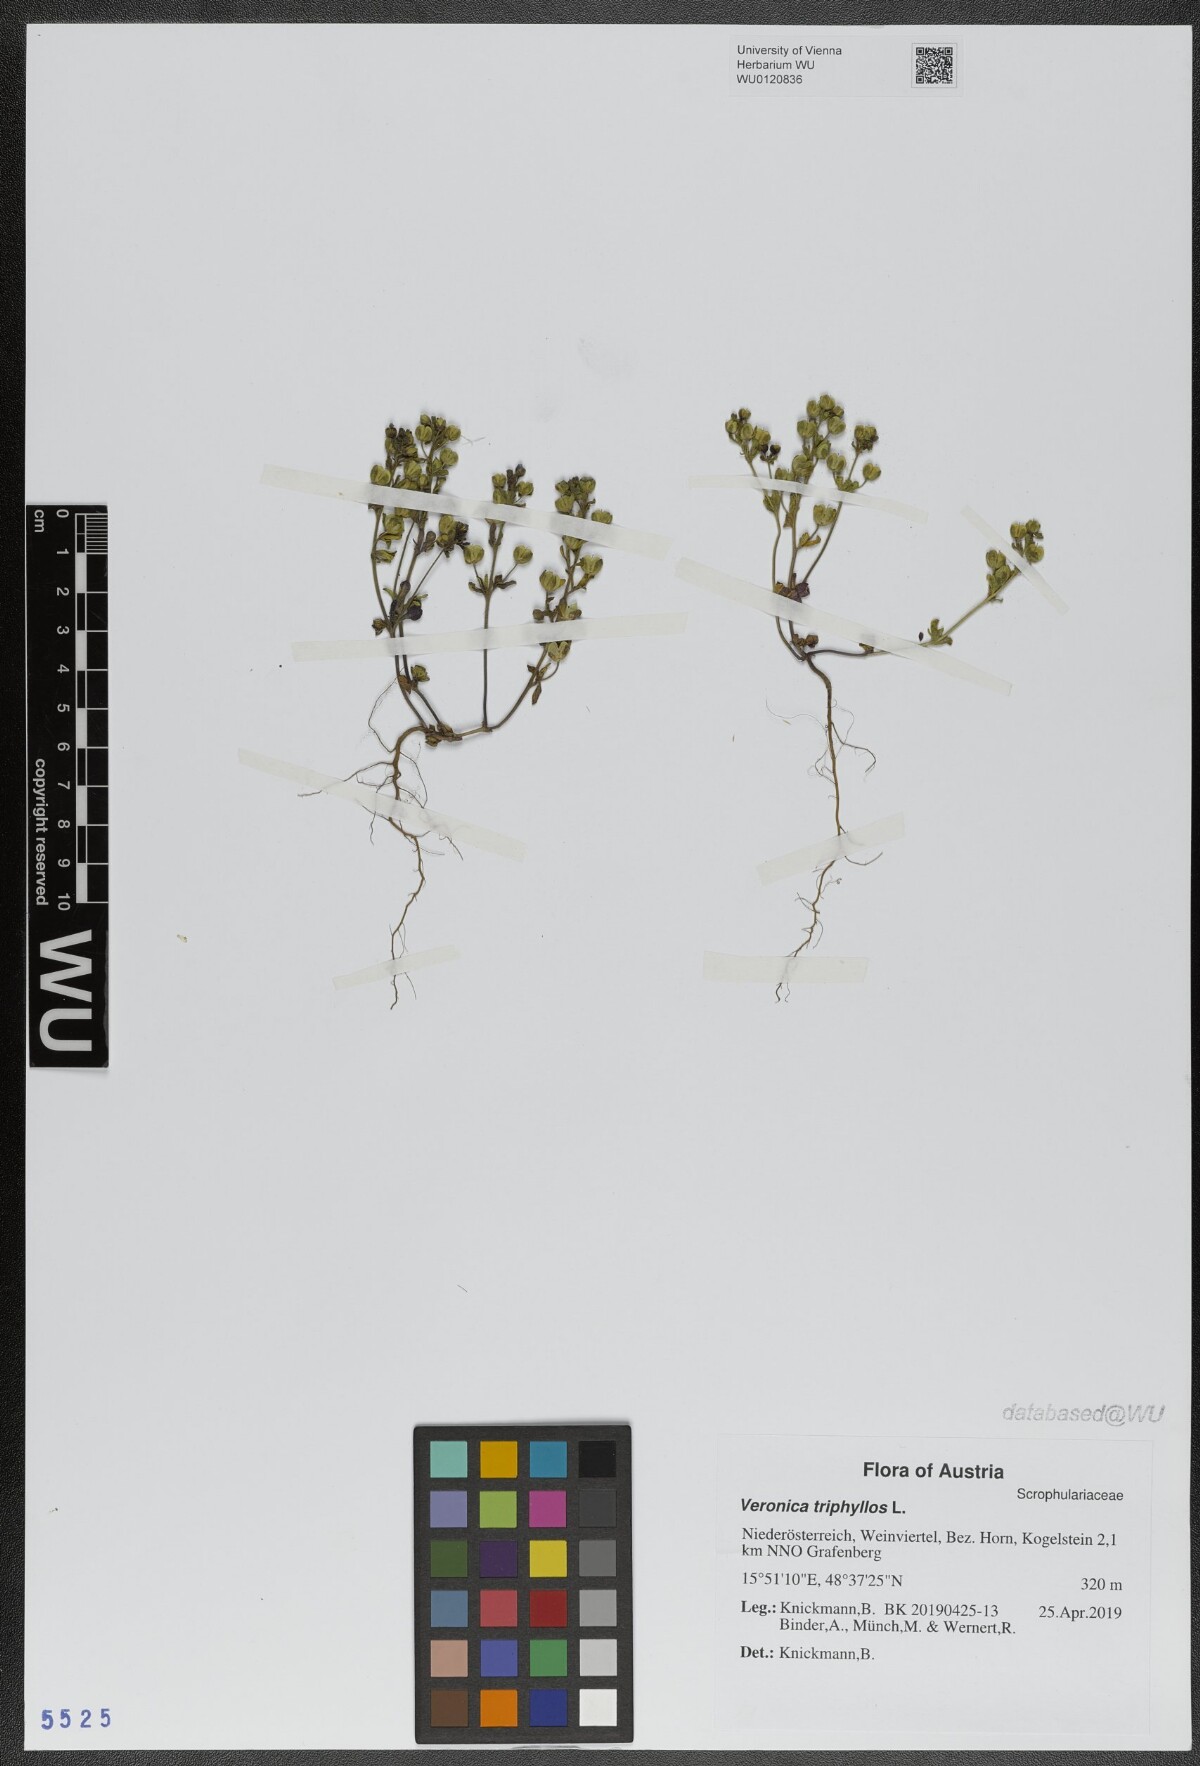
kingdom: Plantae
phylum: Tracheophyta
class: Magnoliopsida
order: Lamiales
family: Plantaginaceae
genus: Veronica
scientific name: Veronica triphyllos
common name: Fingered speedwell
